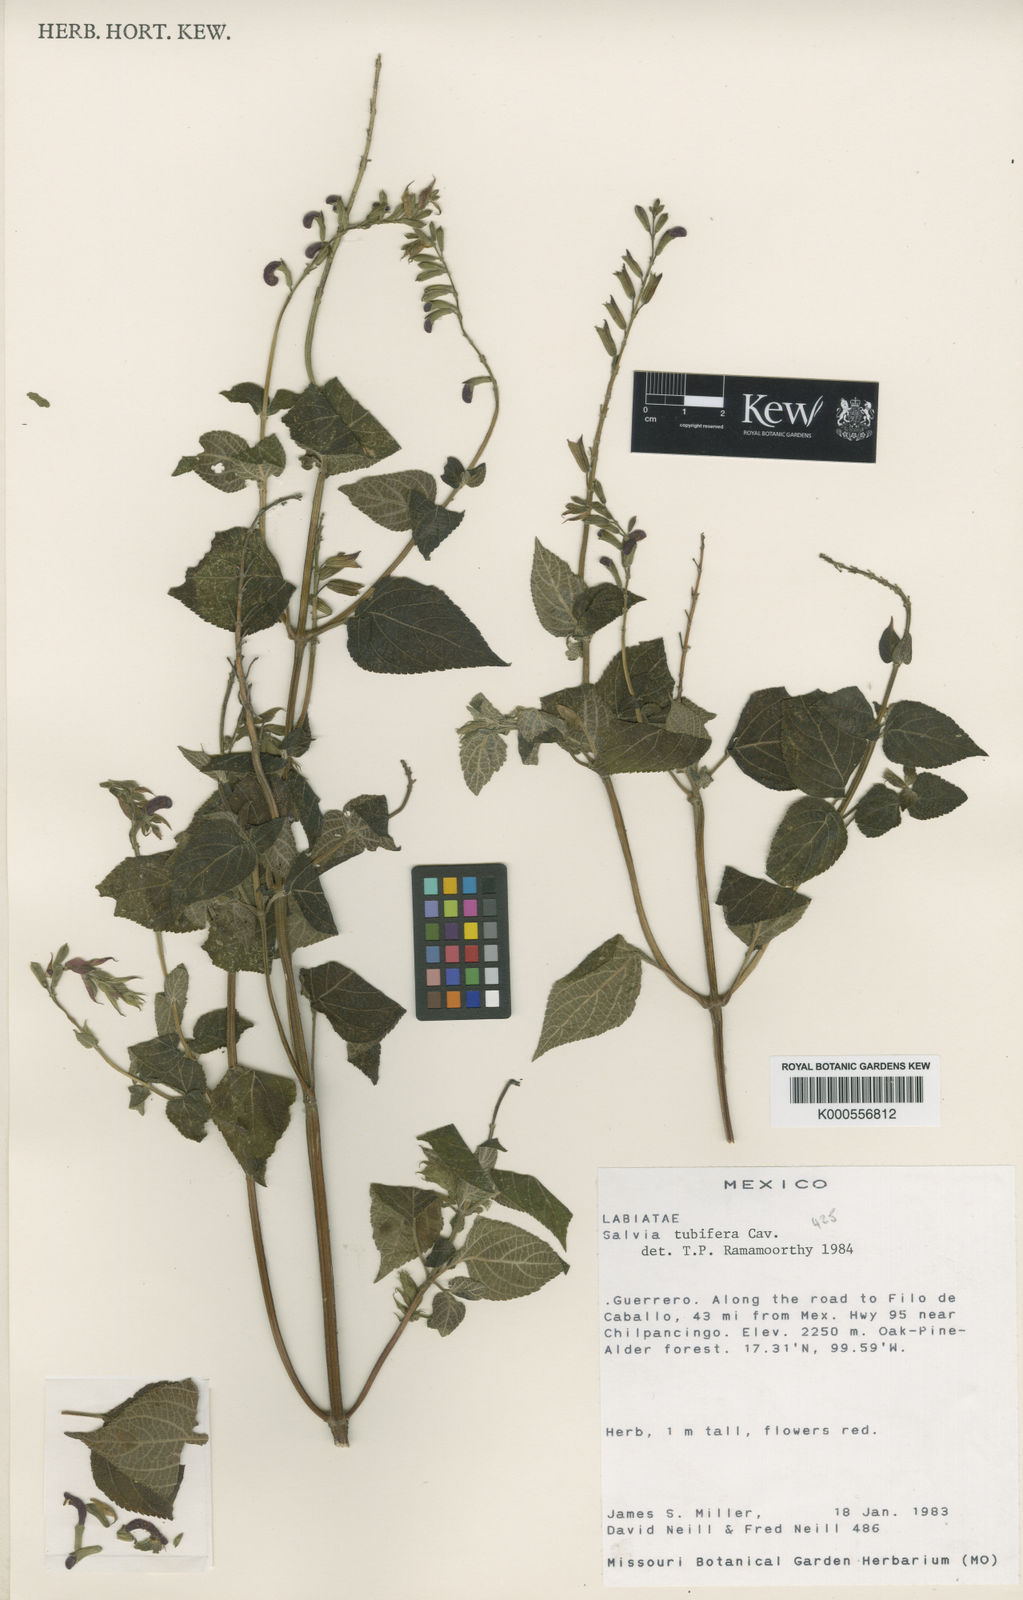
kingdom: Plantae
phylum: Tracheophyta
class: Magnoliopsida
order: Lamiales
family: Lamiaceae
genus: Salvia
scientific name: Salvia tubifera
